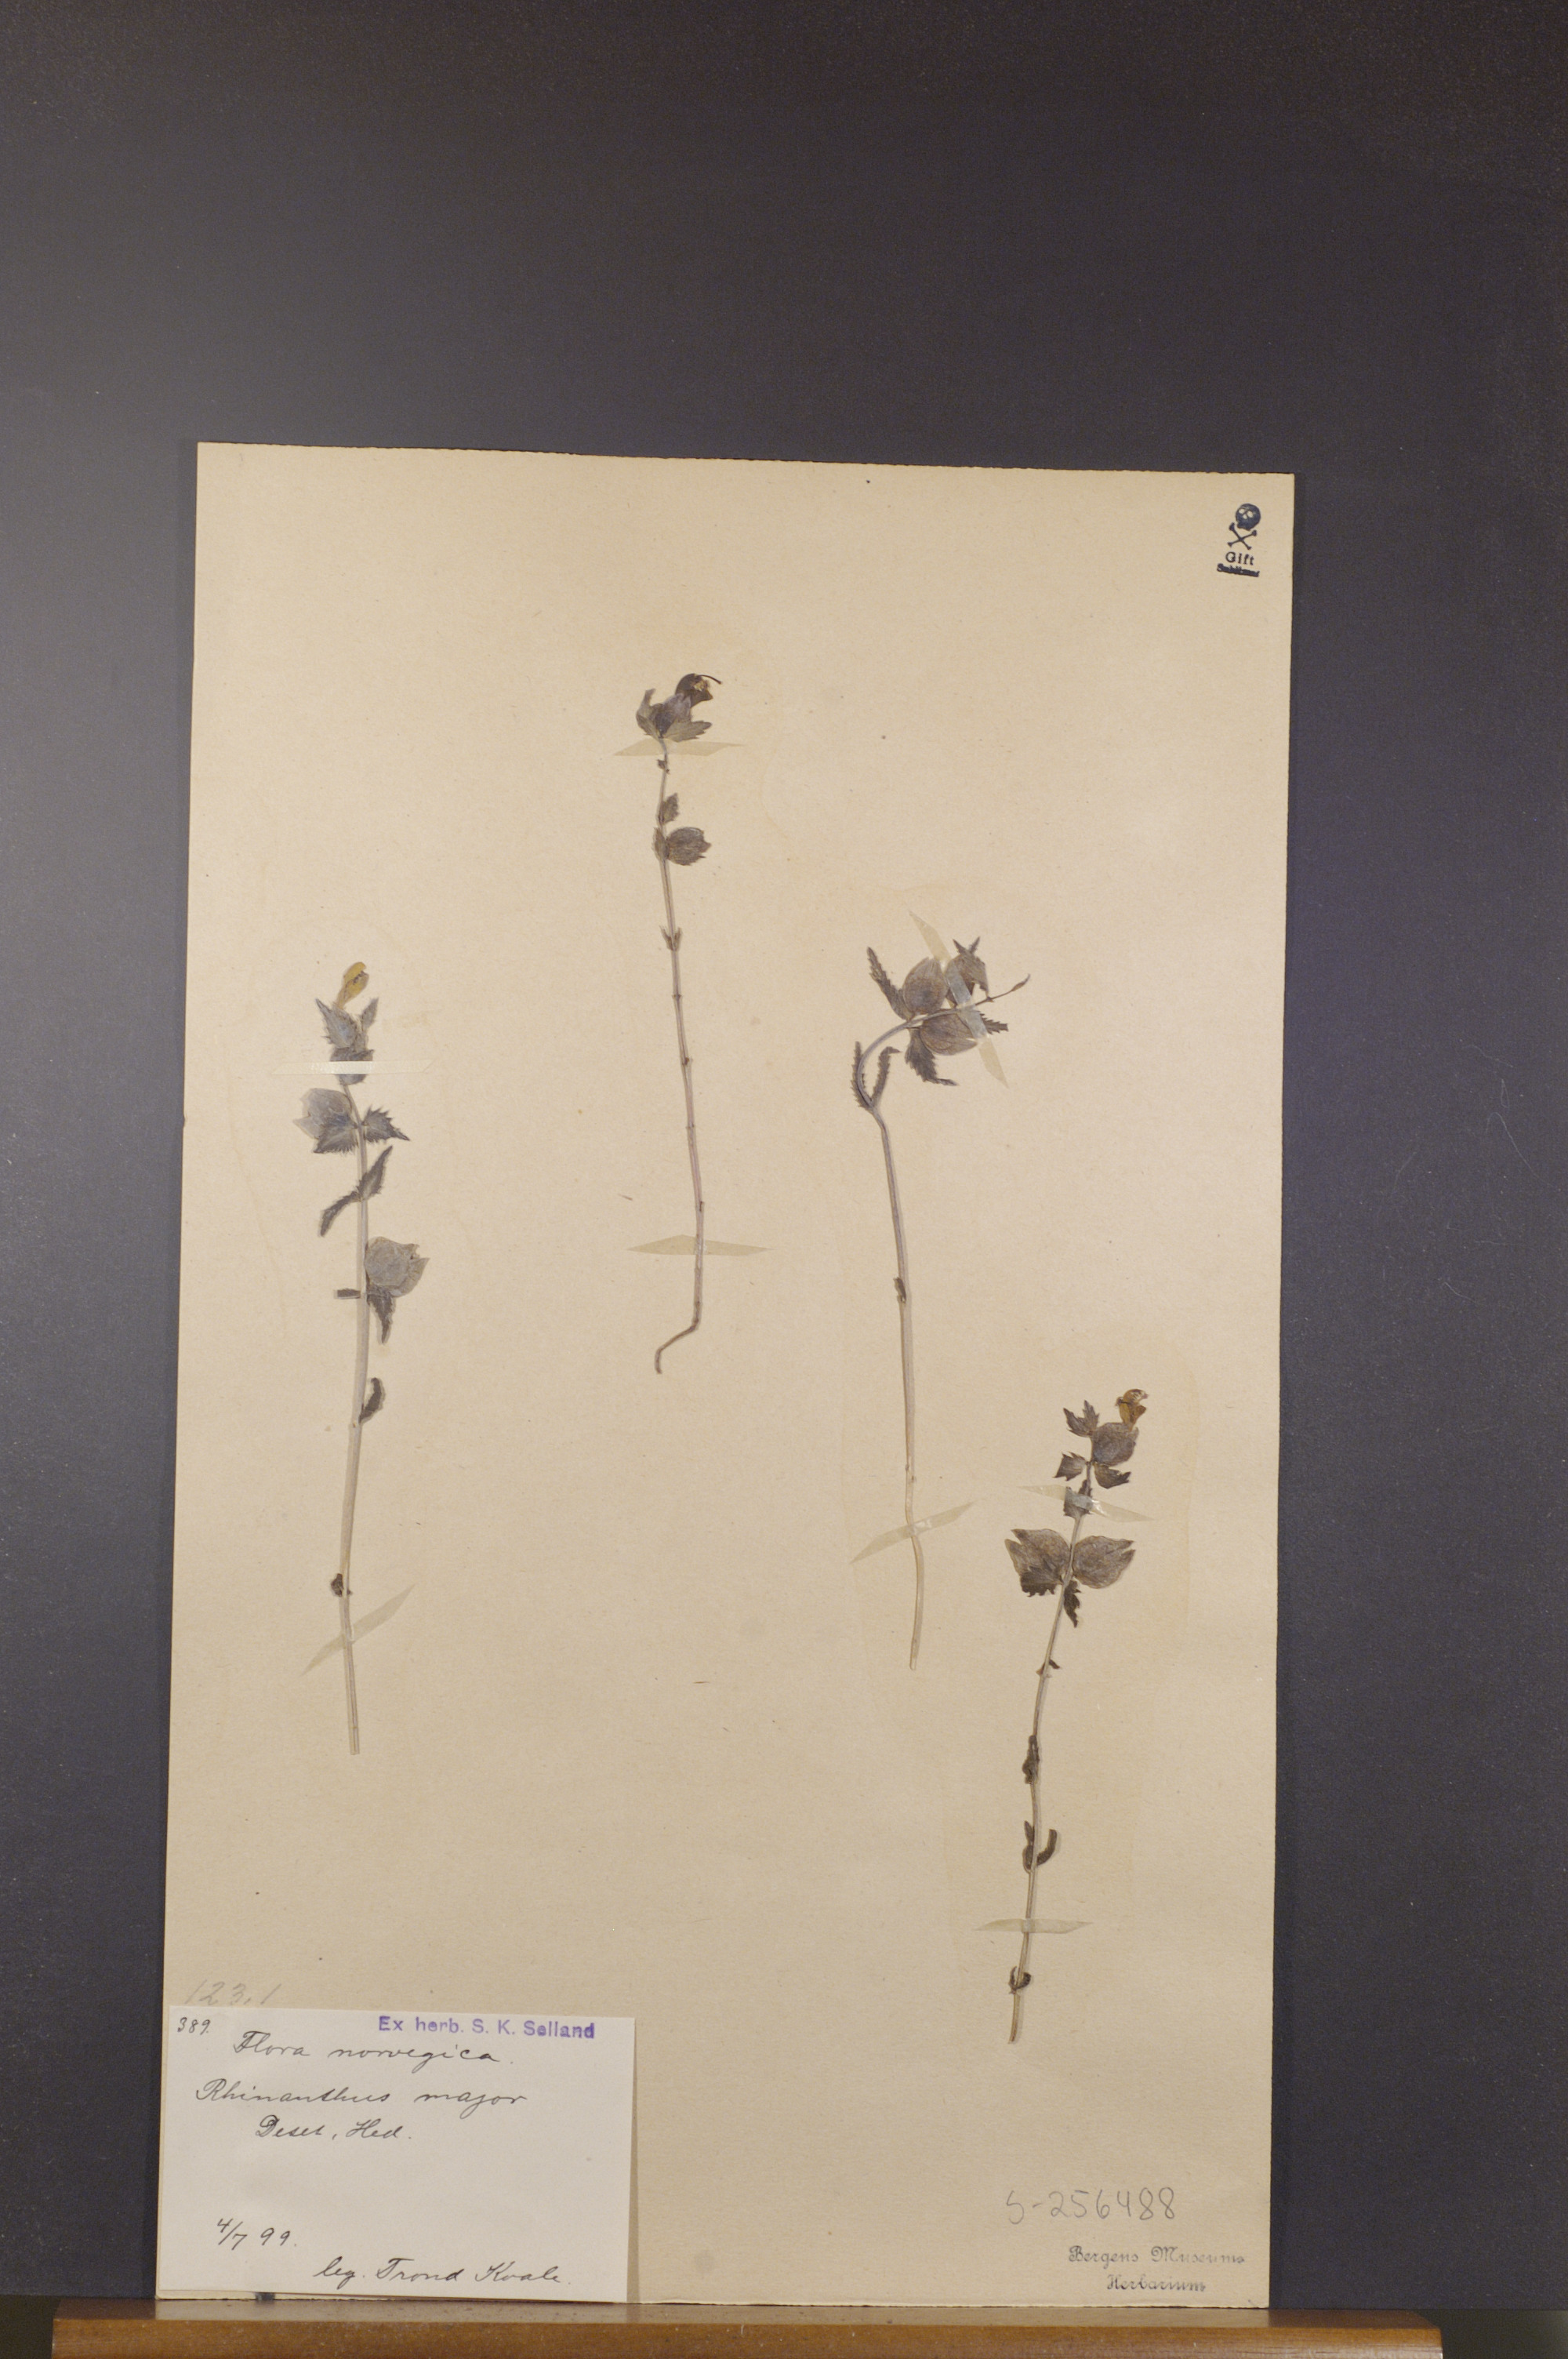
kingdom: Plantae
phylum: Tracheophyta
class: Magnoliopsida
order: Lamiales
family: Orobanchaceae
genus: Rhinanthus
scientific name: Rhinanthus serotinus
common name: Late-flowering yellow rattle
